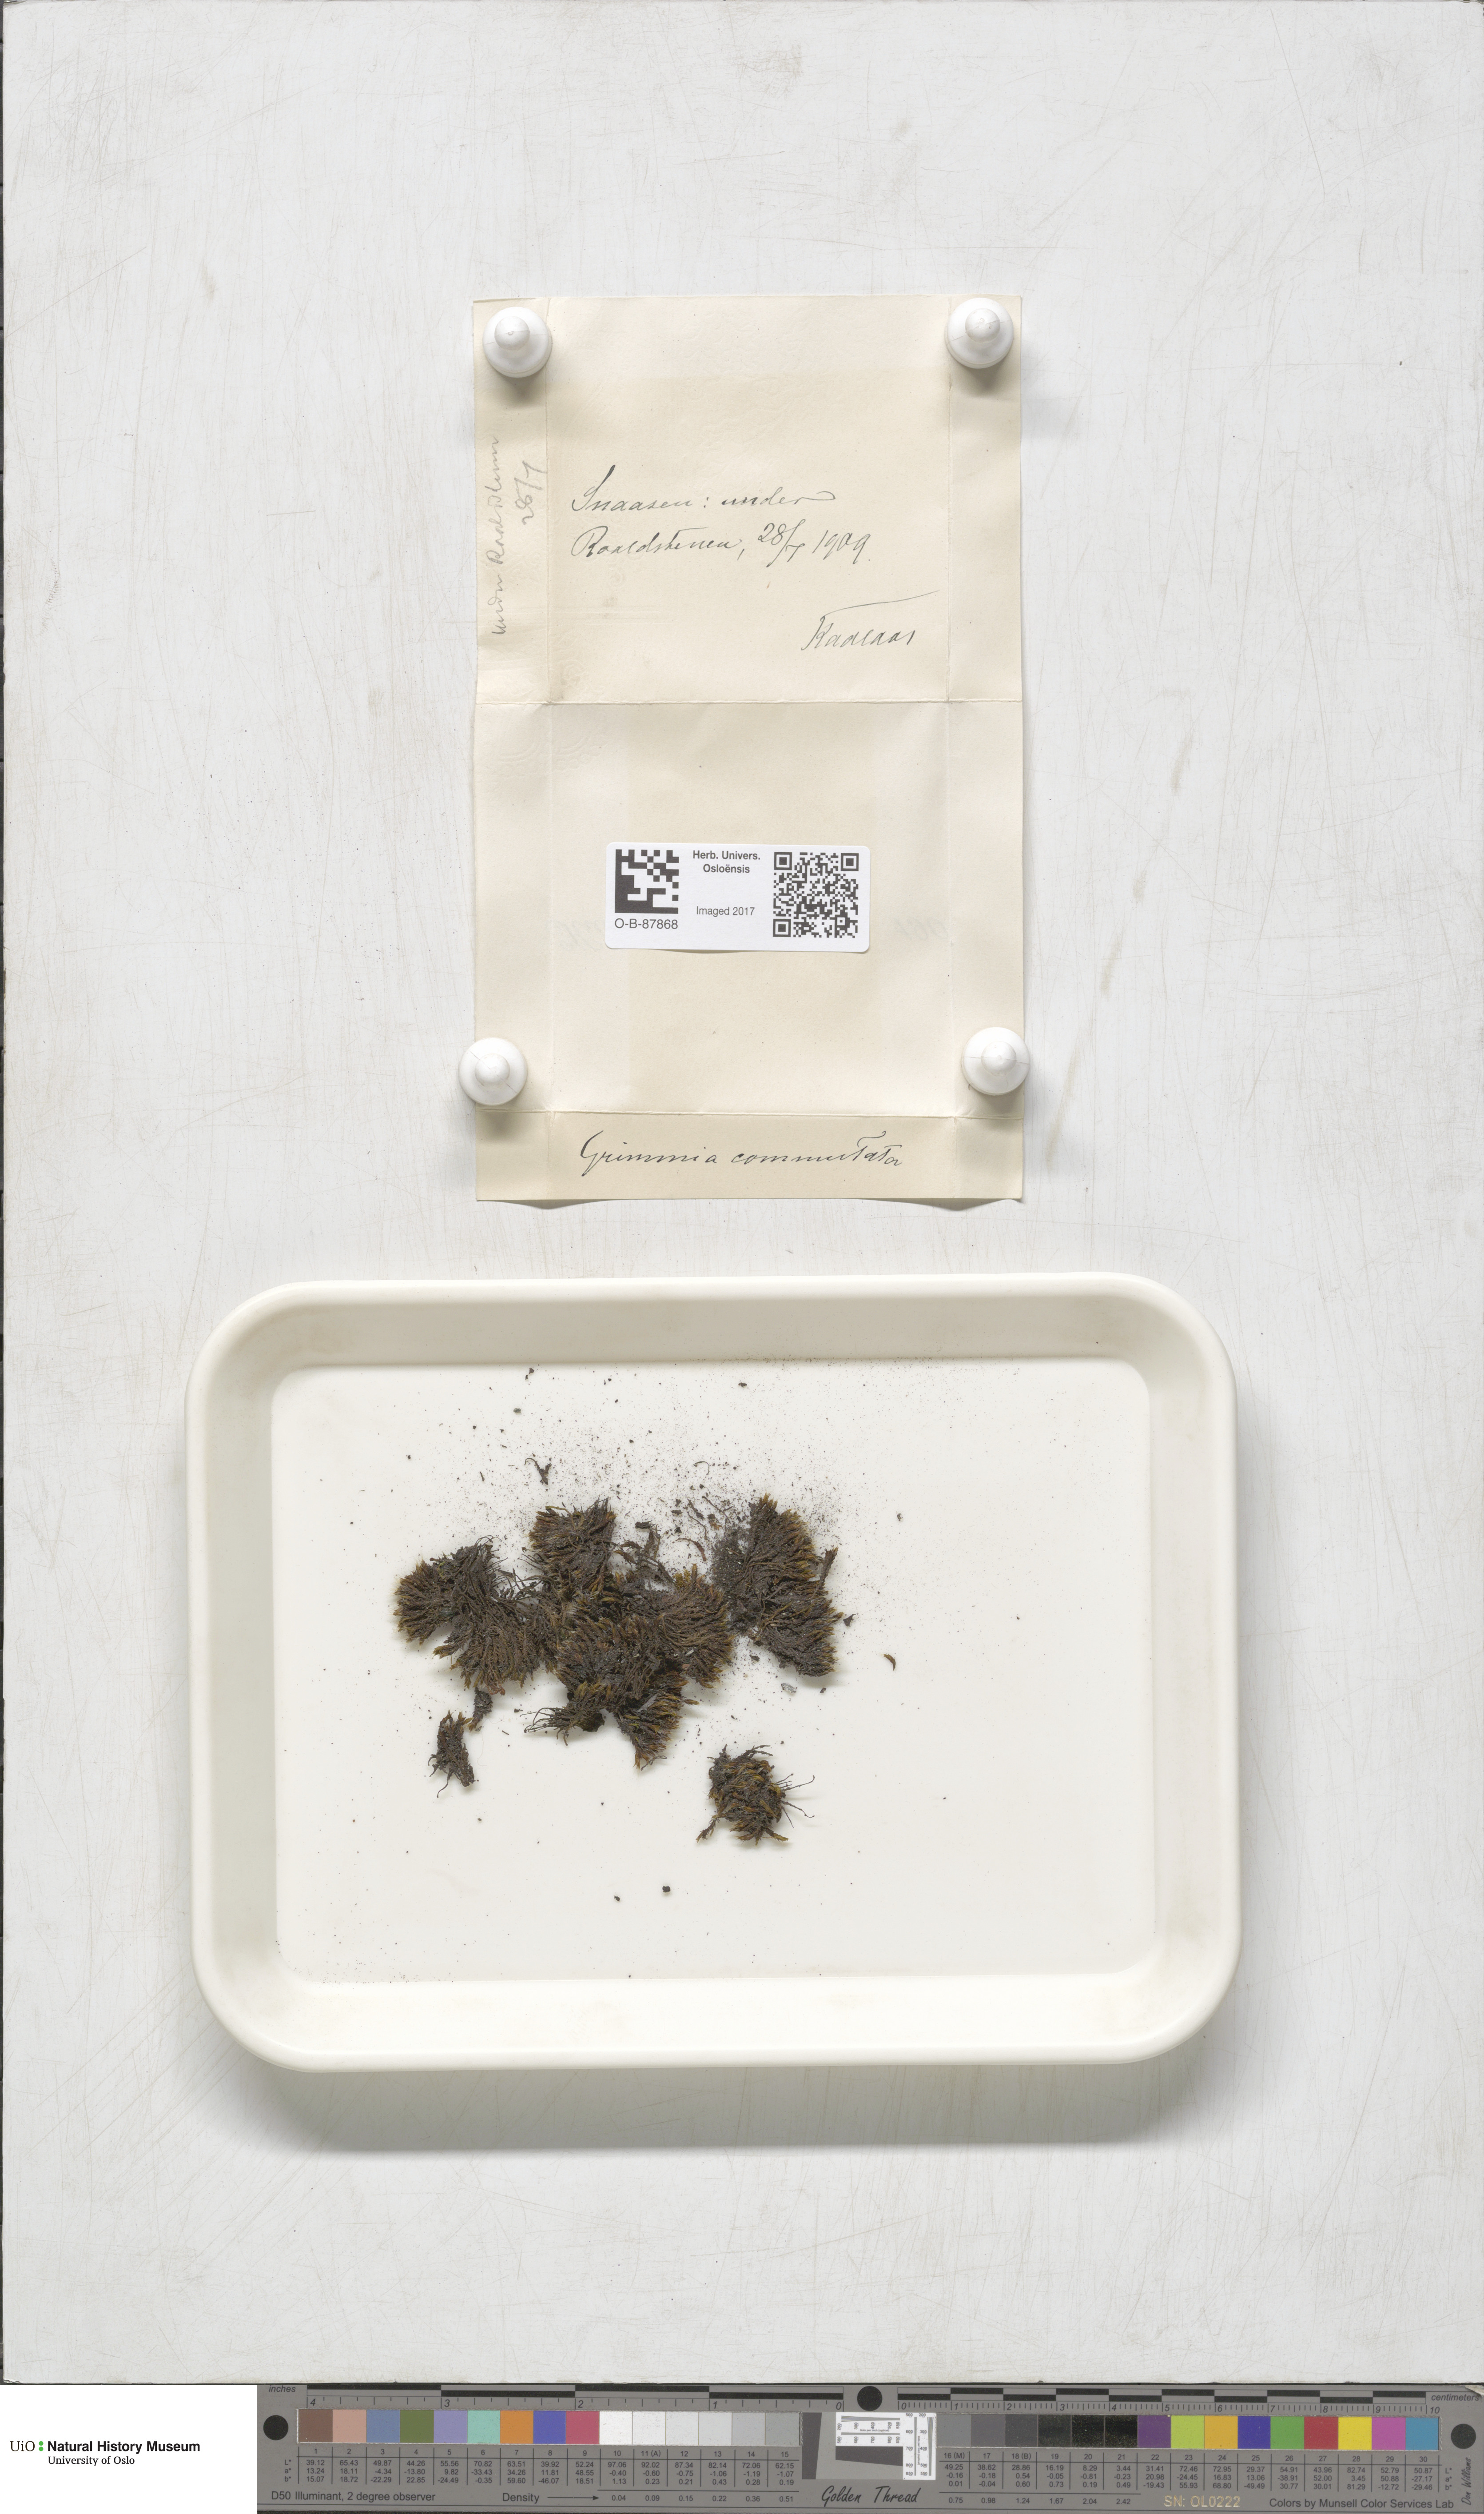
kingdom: Plantae
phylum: Bryophyta
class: Bryopsida
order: Grimmiales
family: Grimmiaceae
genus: Grimmia
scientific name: Grimmia ovalis
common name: Oval grimmia
